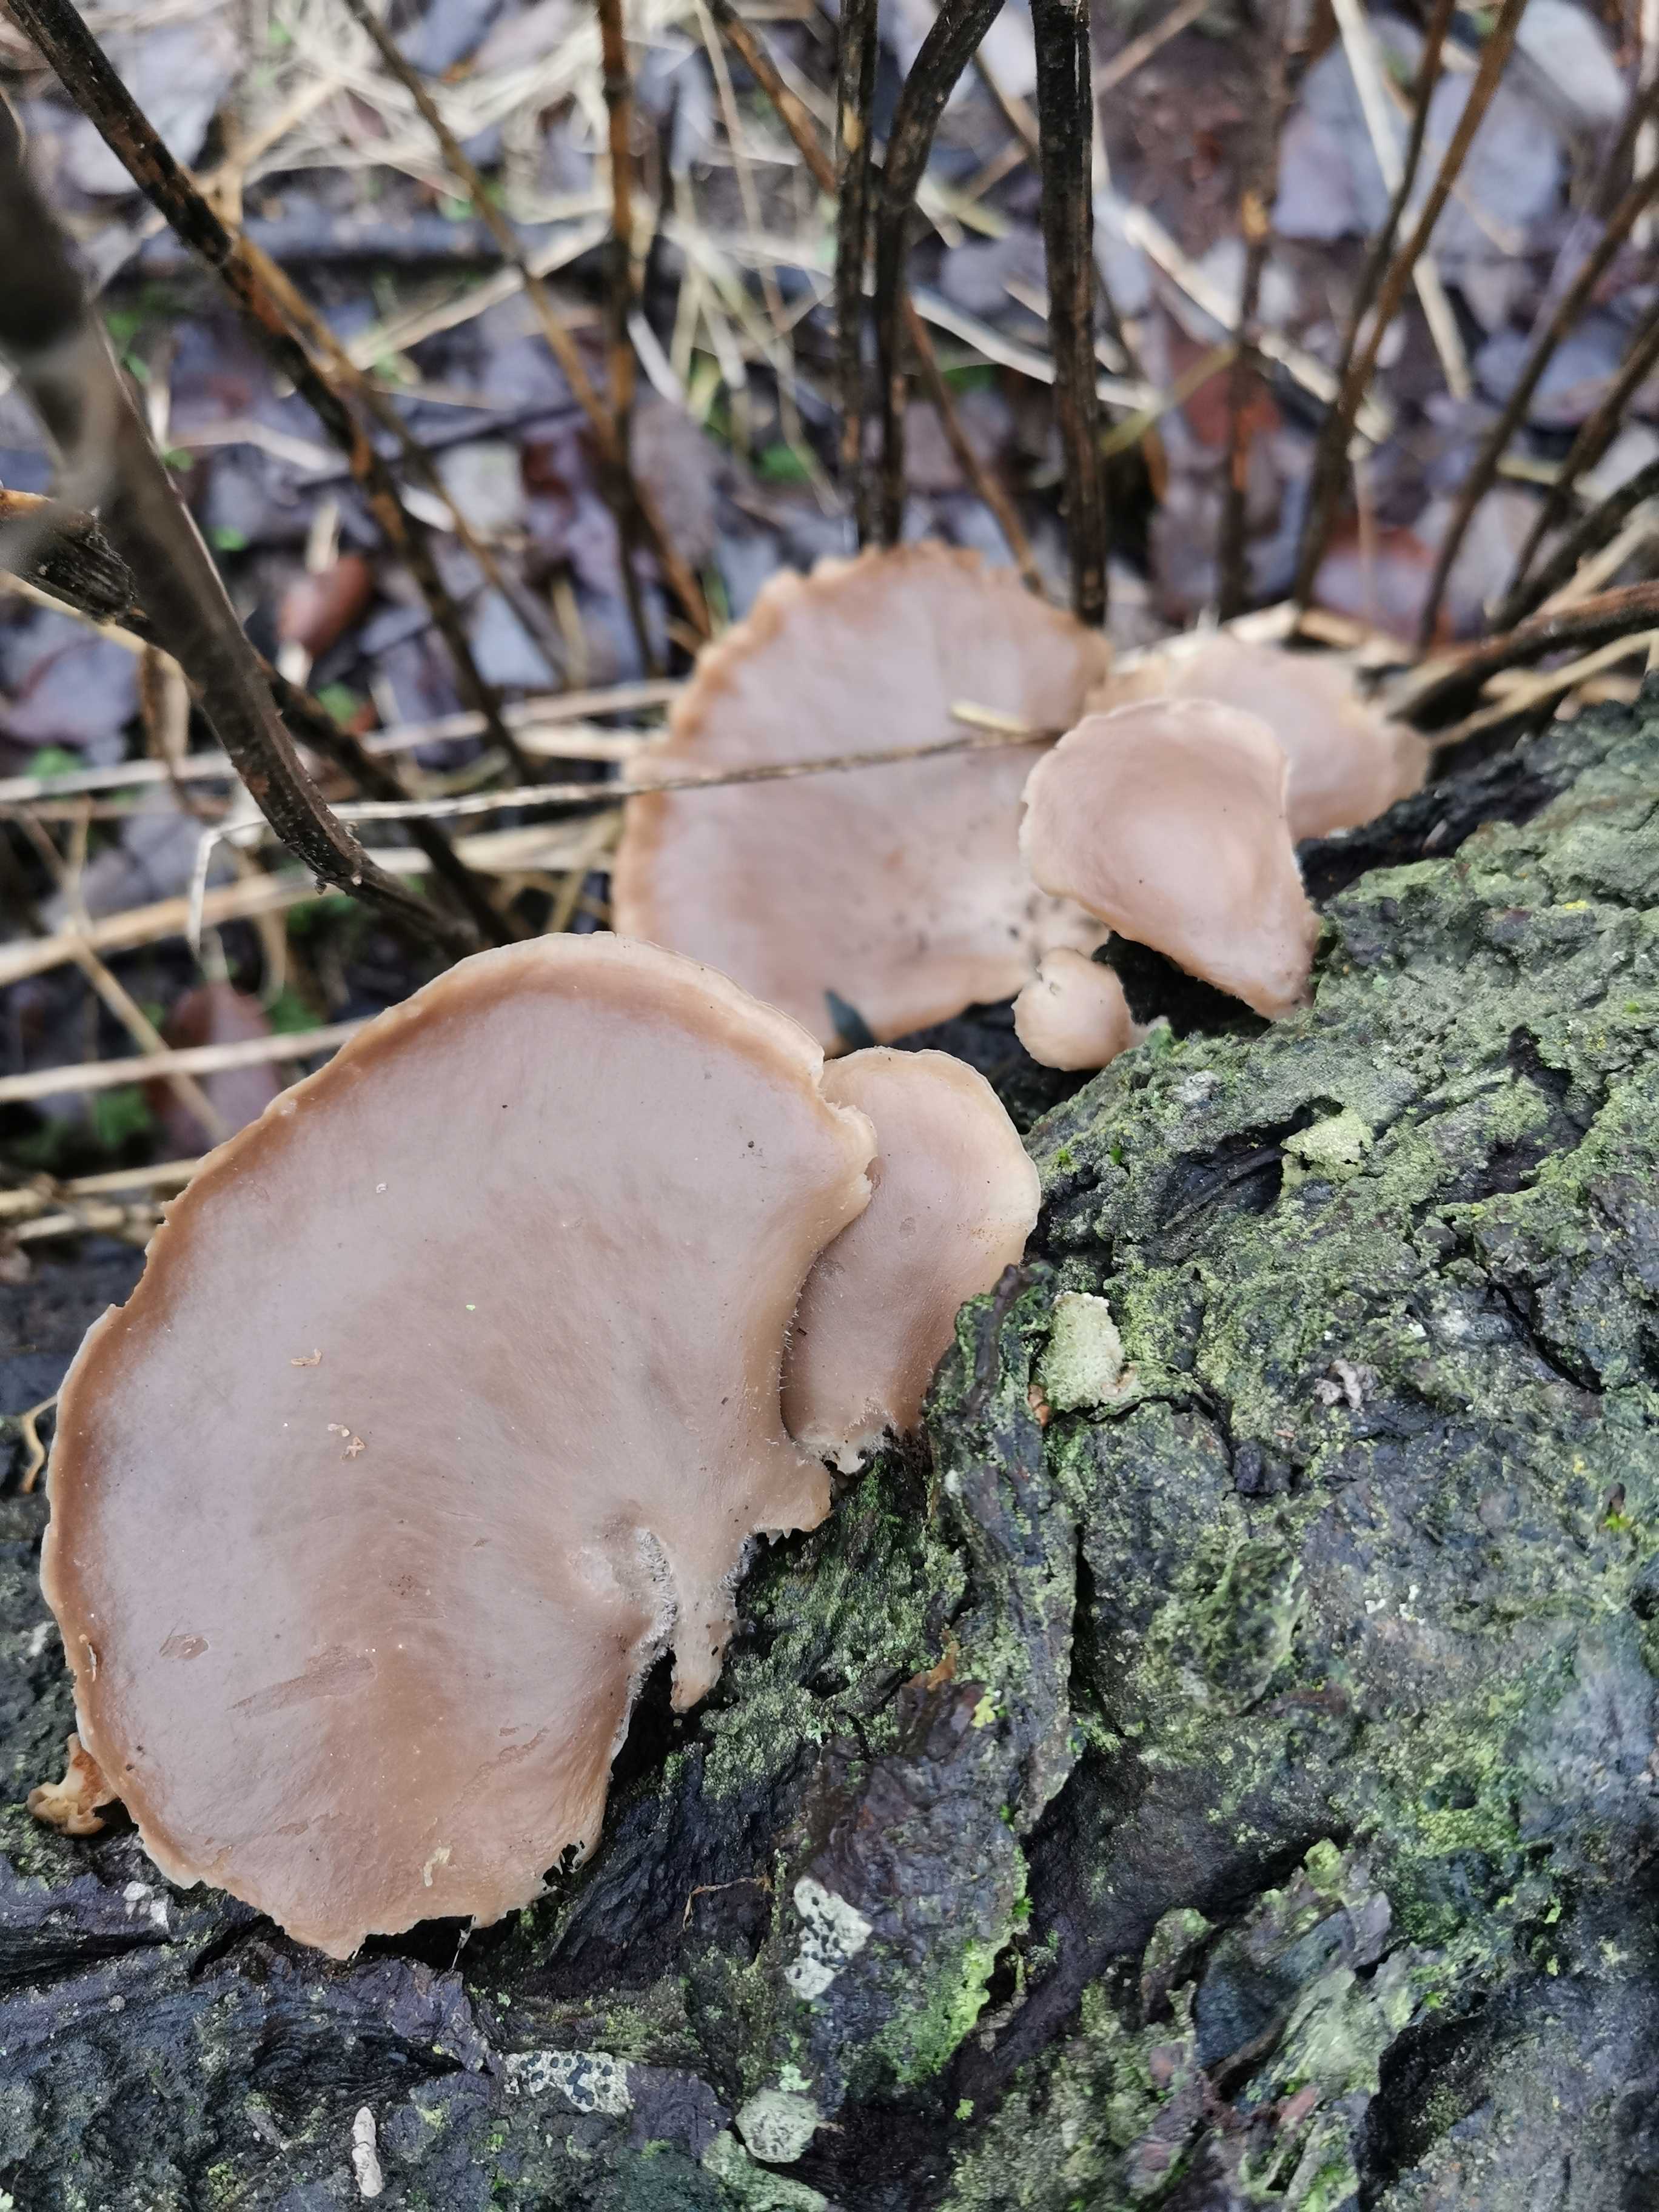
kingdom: Fungi
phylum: Basidiomycota
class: Agaricomycetes
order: Agaricales
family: Pleurotaceae
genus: Pleurotus
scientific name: Pleurotus ostreatus
